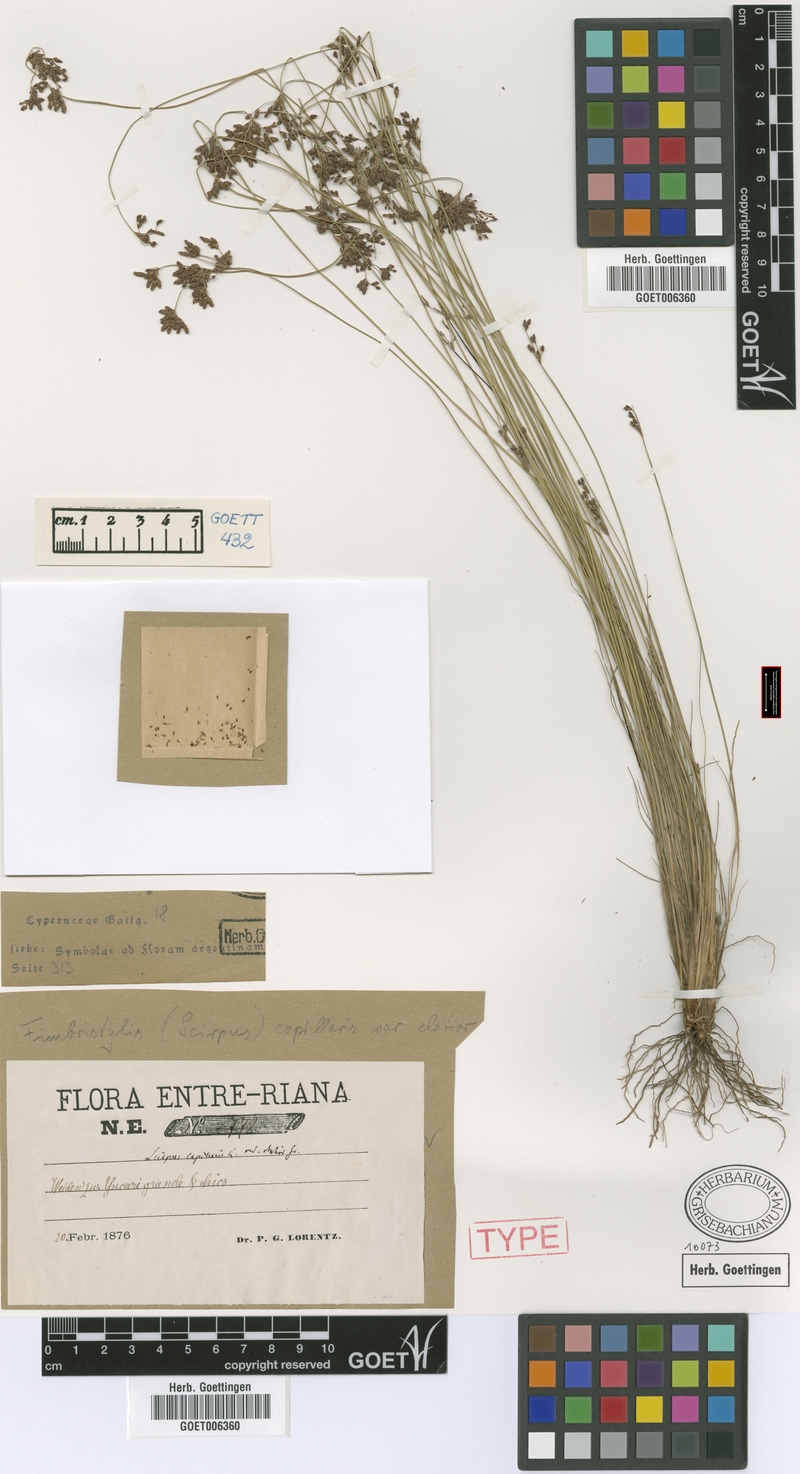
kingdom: Plantae
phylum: Tracheophyta
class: Liliopsida
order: Poales
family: Cyperaceae
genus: Bulbostylis
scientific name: Bulbostylis communis
